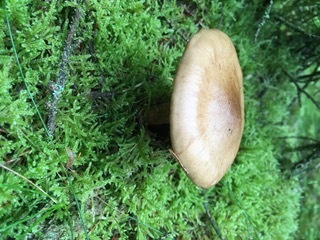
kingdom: Fungi
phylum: Basidiomycota
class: Agaricomycetes
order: Agaricales
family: Cortinariaceae
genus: Thaxterogaster
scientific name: Thaxterogaster sphagnophilus
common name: vandplettet slørhat
